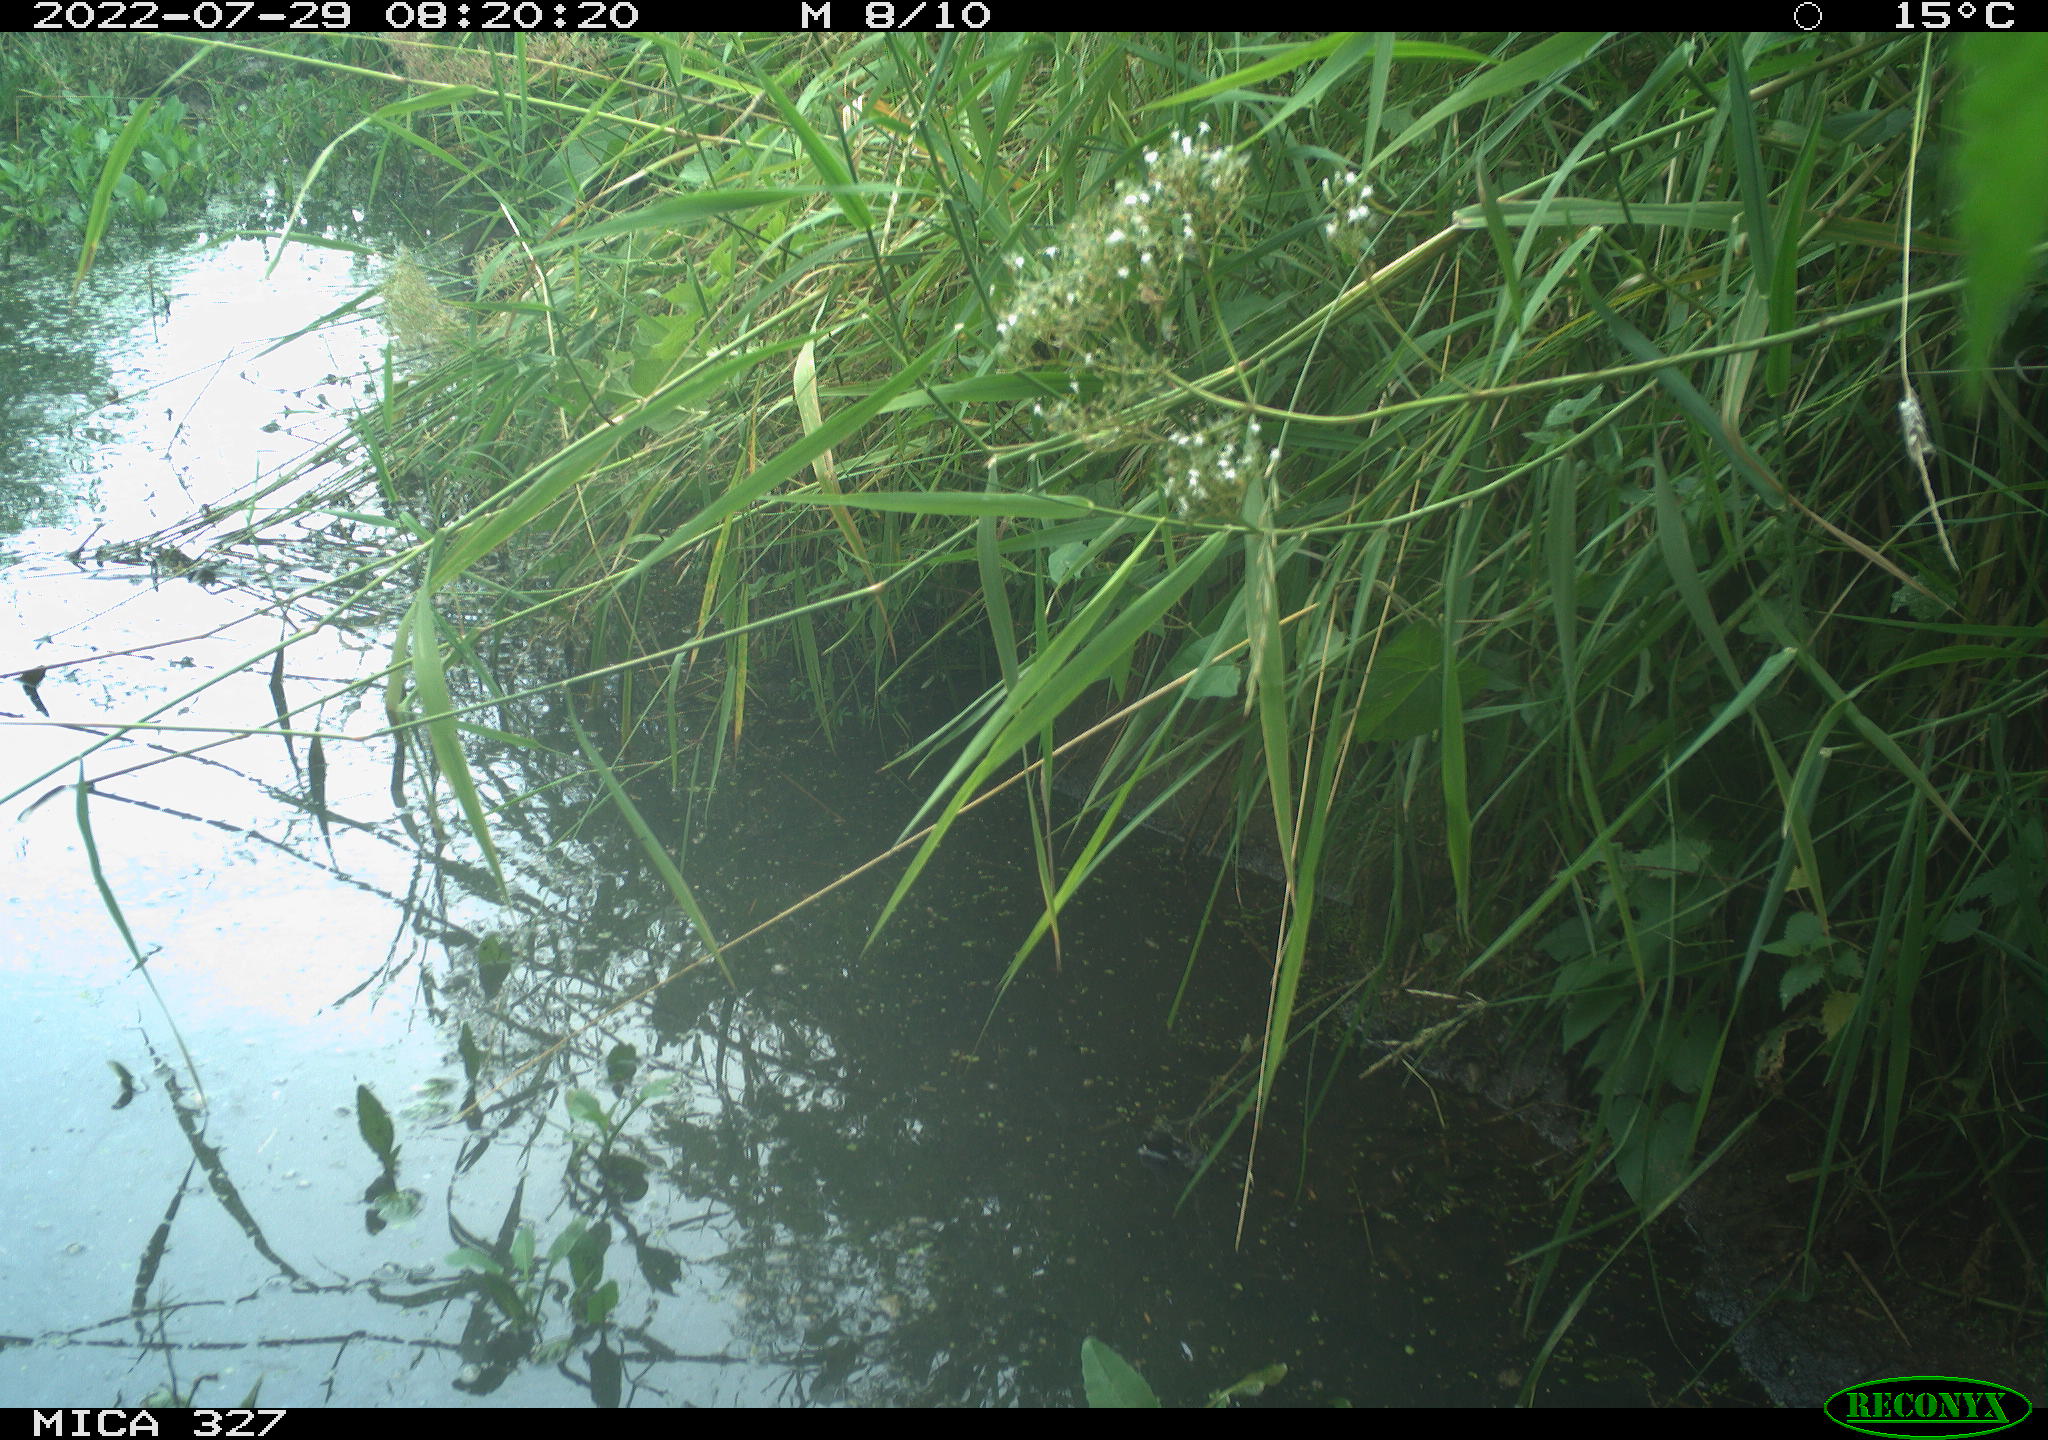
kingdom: Animalia
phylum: Chordata
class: Aves
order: Anseriformes
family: Anatidae
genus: Anas
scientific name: Anas
